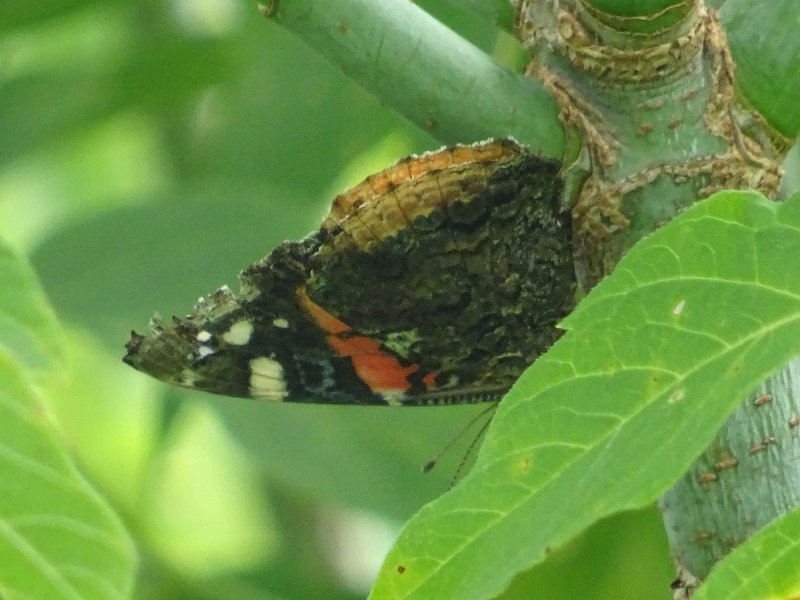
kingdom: Animalia
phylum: Arthropoda
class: Insecta
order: Lepidoptera
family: Nymphalidae
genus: Vanessa
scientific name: Vanessa atalanta
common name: Red Admiral
